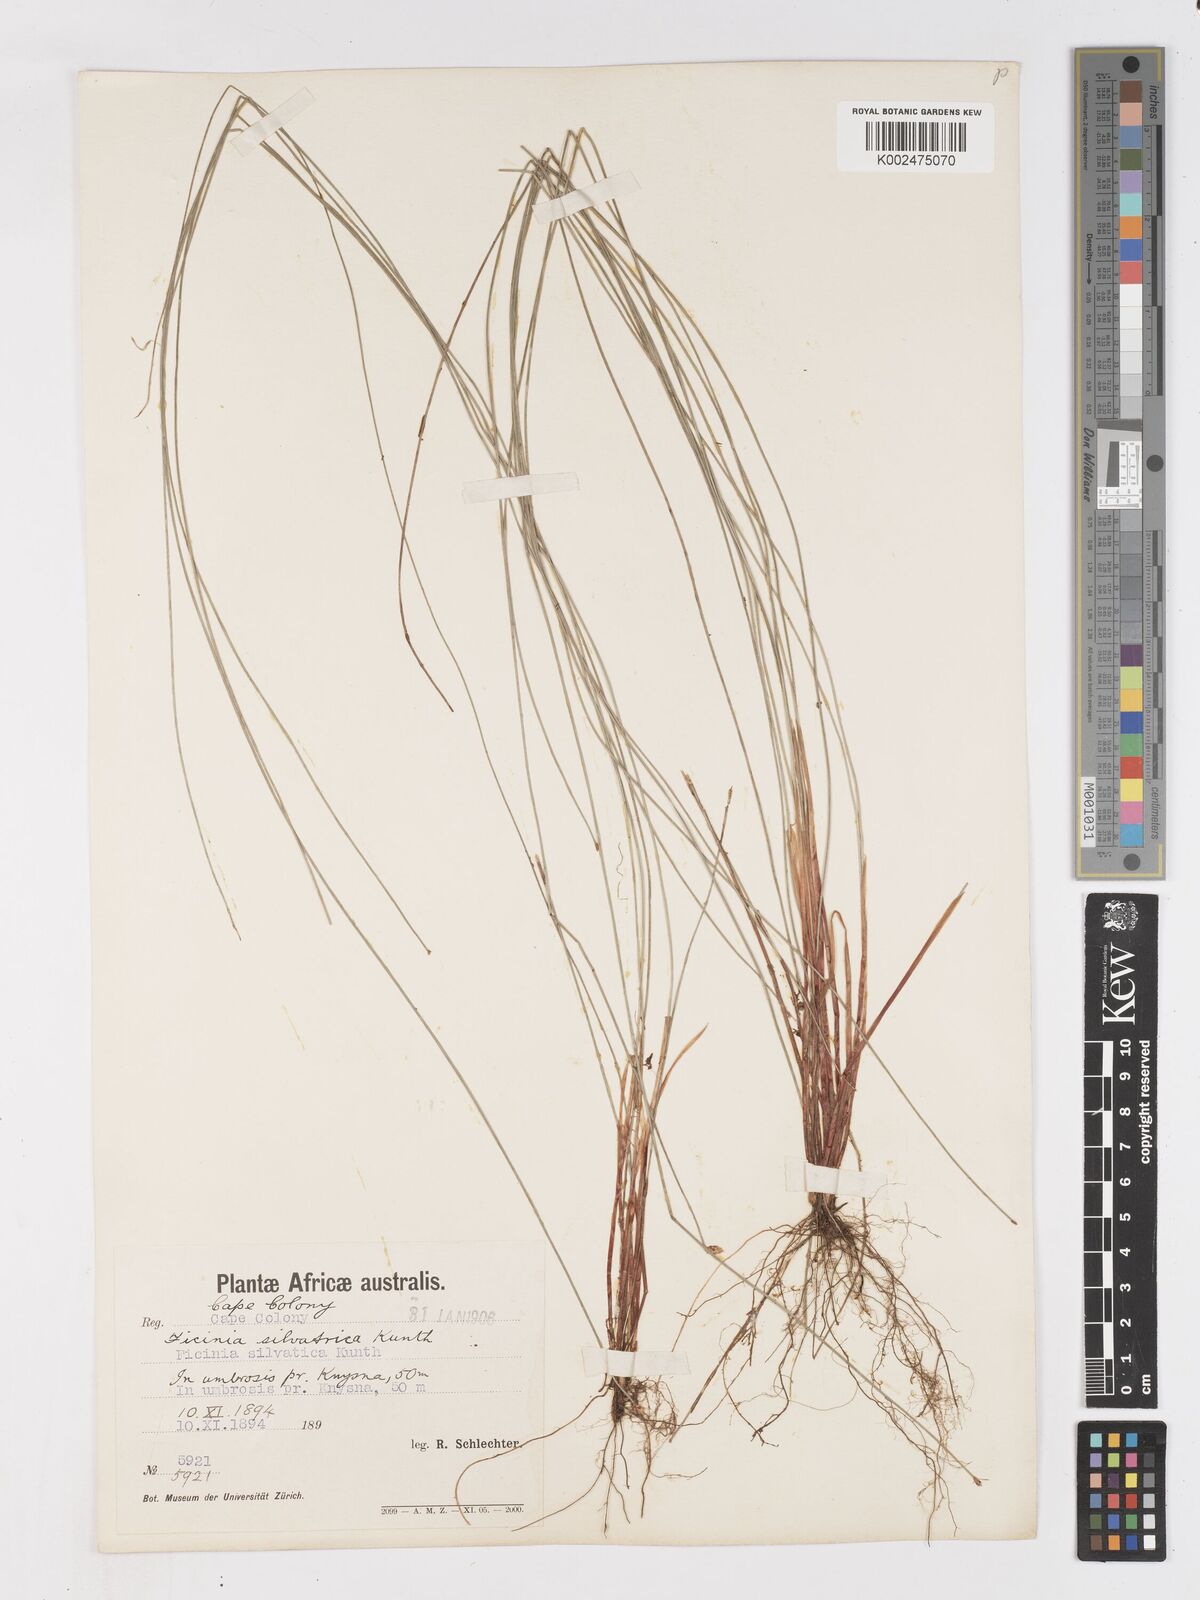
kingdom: Plantae
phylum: Tracheophyta
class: Liliopsida
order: Poales
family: Cyperaceae
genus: Ficinia
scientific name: Ficinia sylvatica
